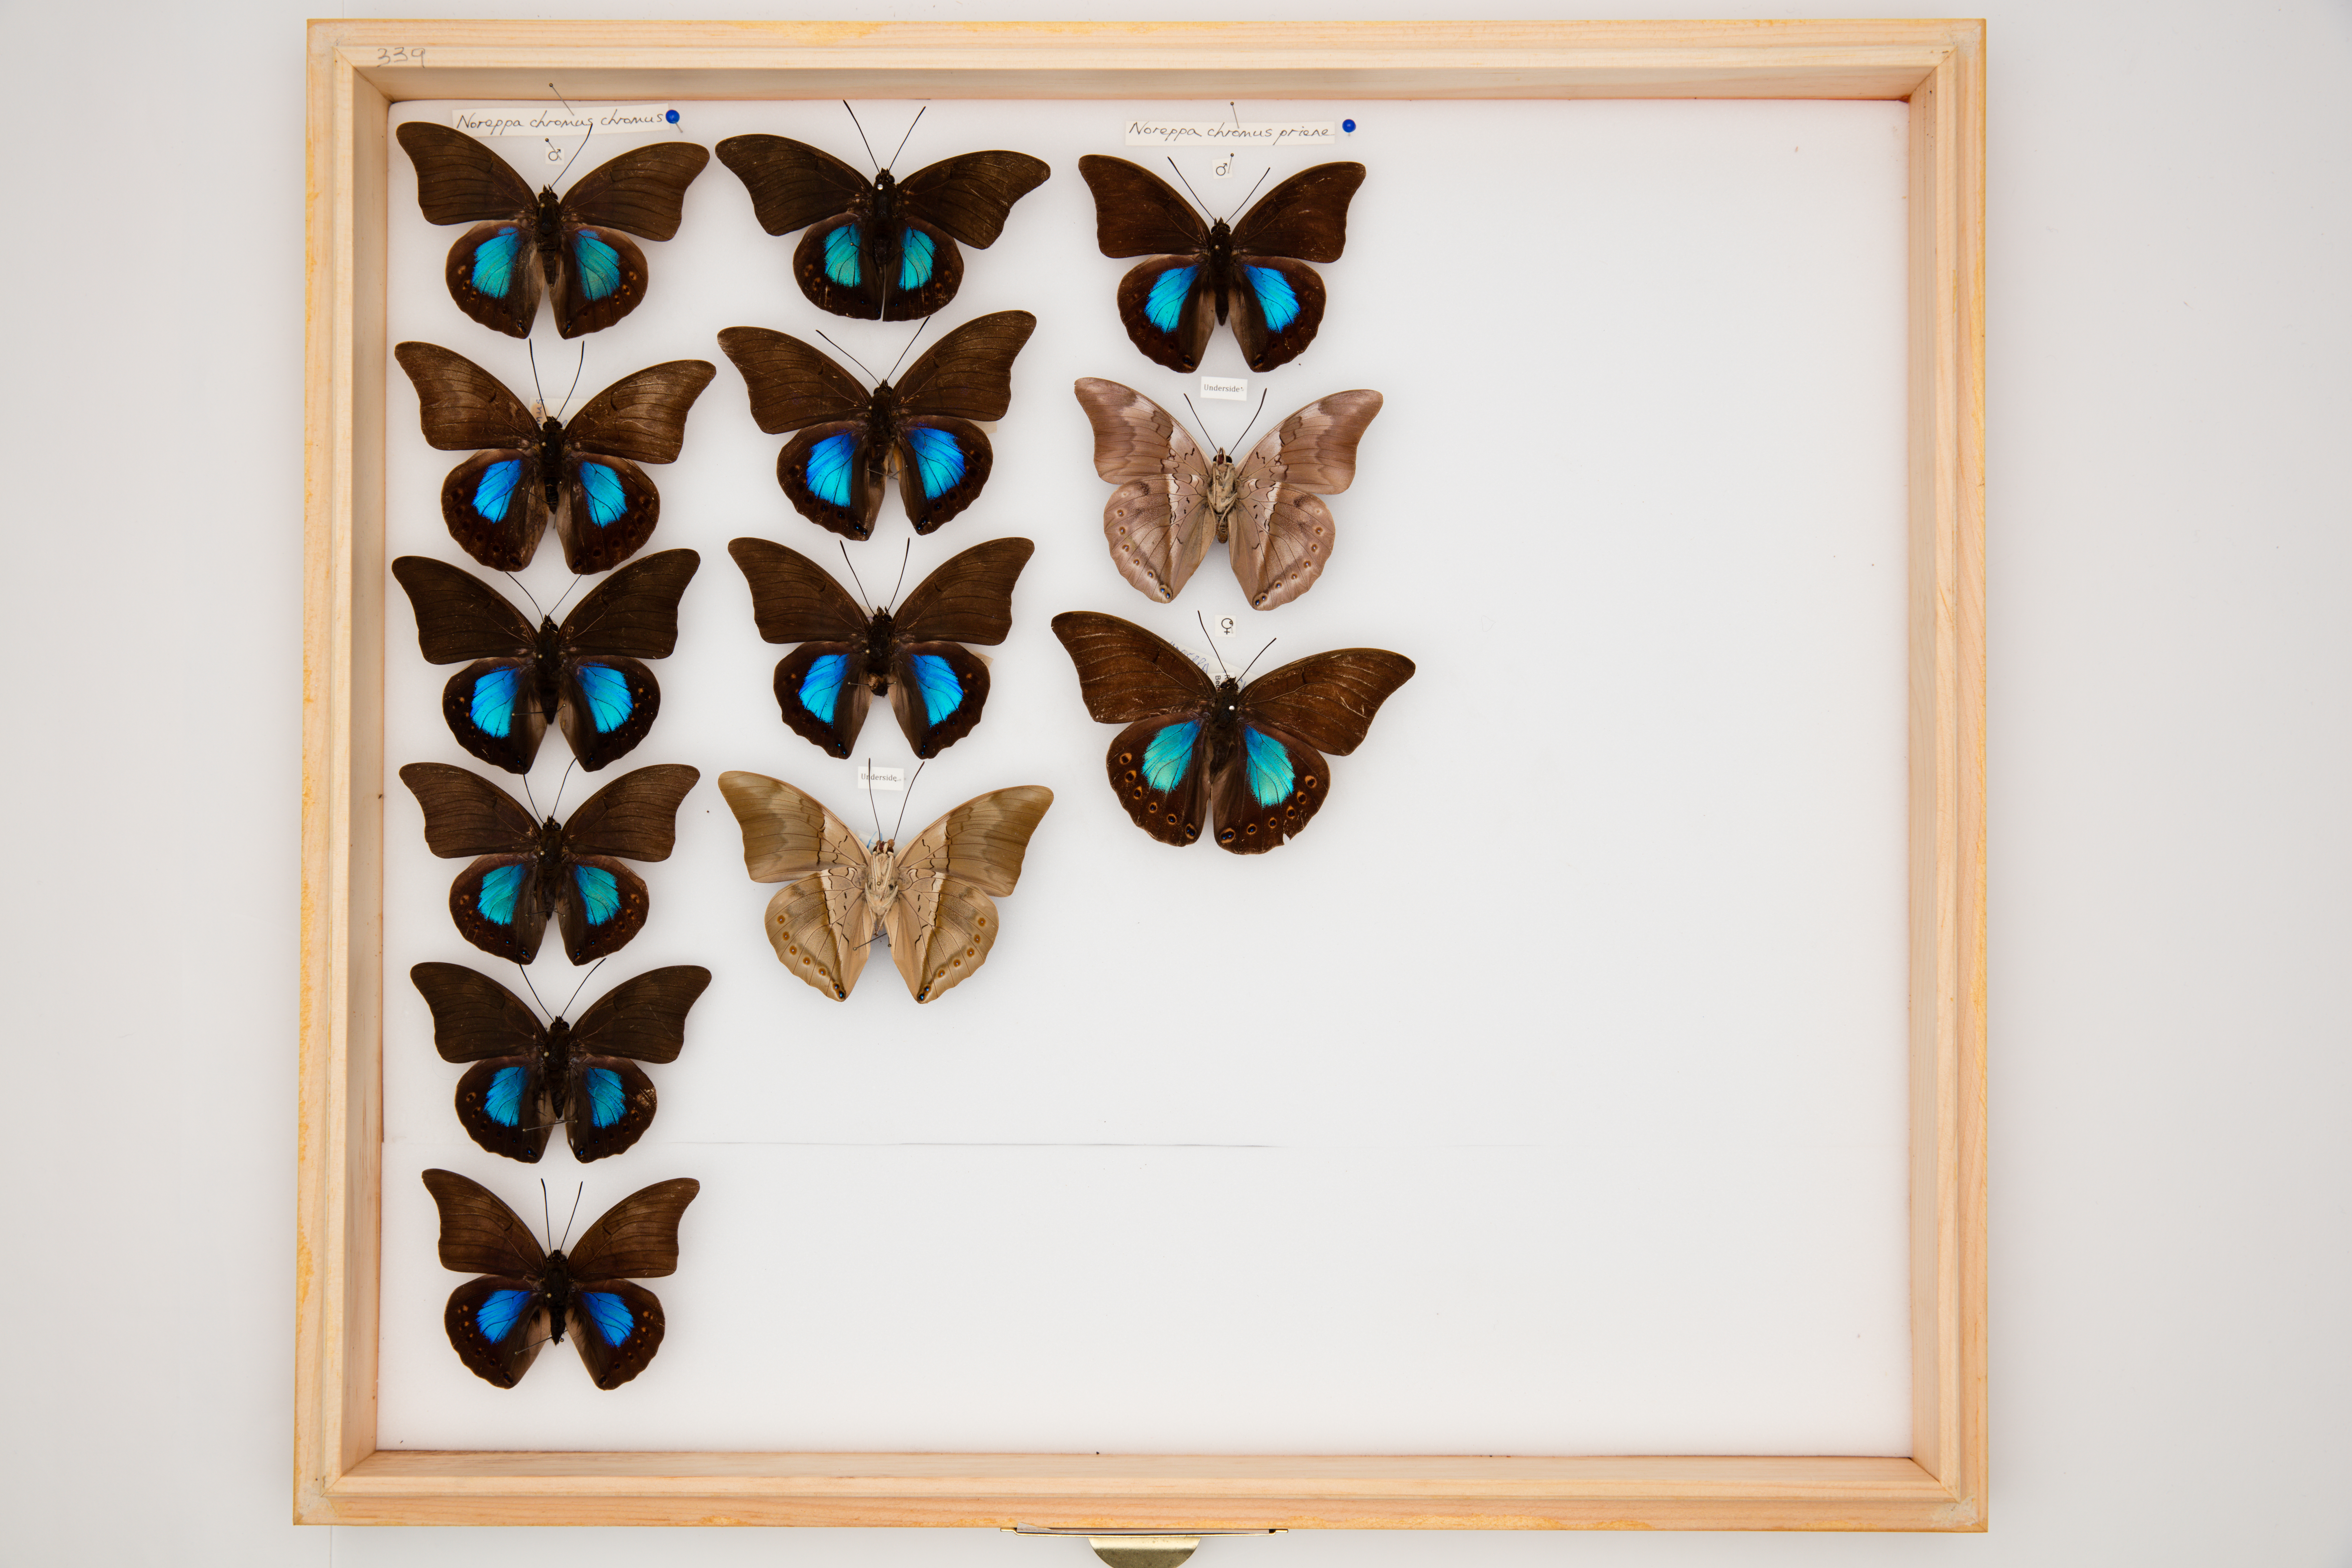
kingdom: Animalia
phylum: Arthropoda
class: Insecta
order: Lepidoptera
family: Nymphalidae
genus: Noreppa
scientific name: Noreppa chromus
